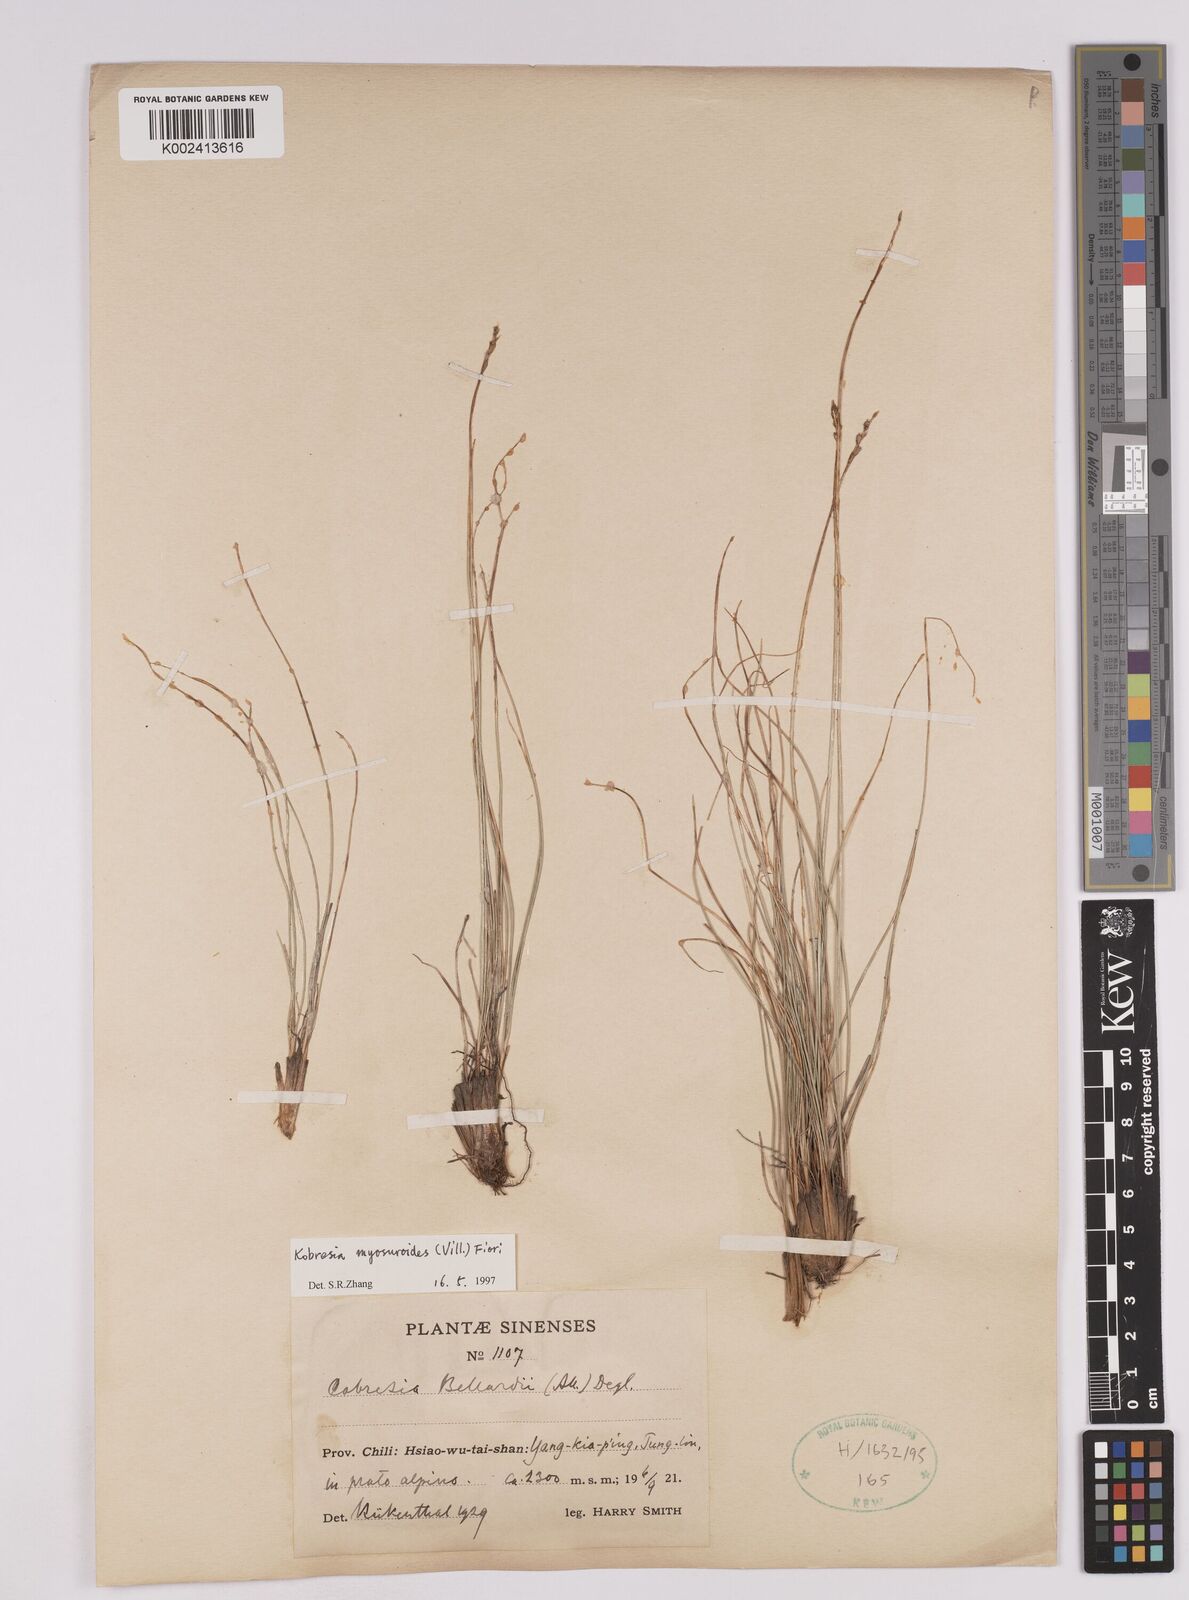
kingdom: Plantae
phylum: Tracheophyta
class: Liliopsida
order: Poales
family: Cyperaceae
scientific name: Cyperaceae
